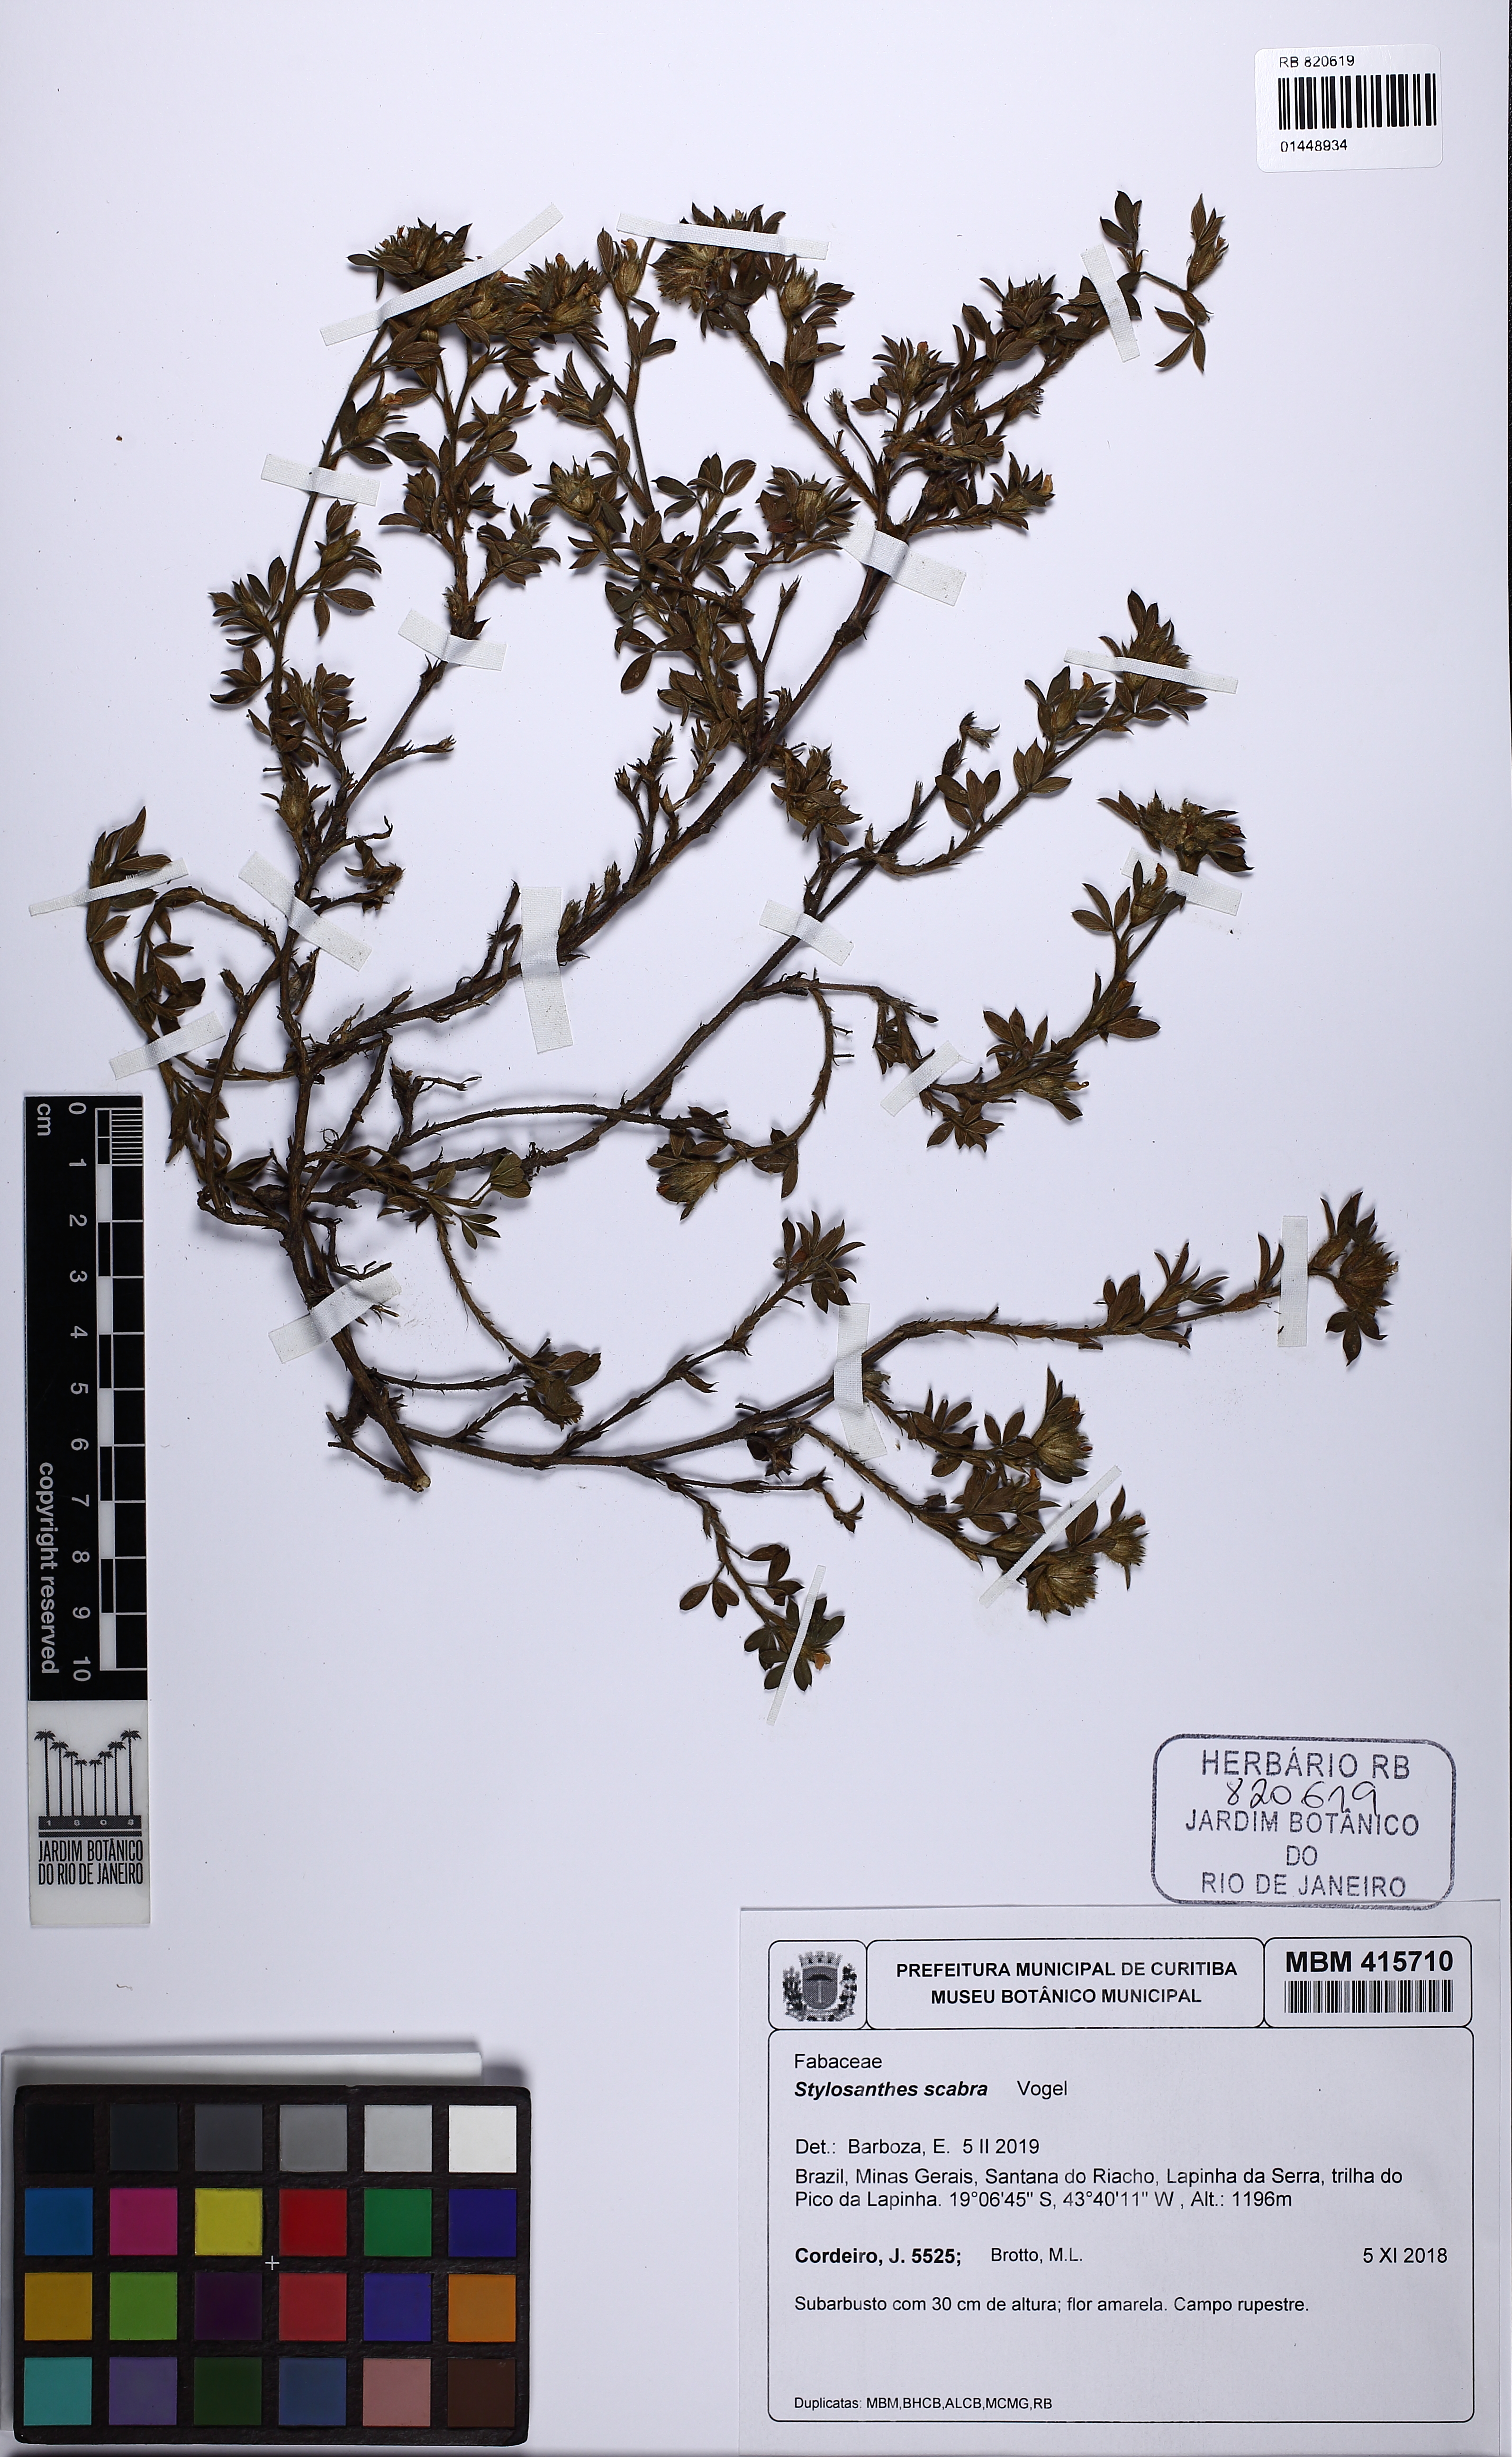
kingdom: Plantae
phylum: Tracheophyta
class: Magnoliopsida
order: Fabales
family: Fabaceae
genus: Stylosanthes
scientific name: Stylosanthes scabra
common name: Pencilflower
